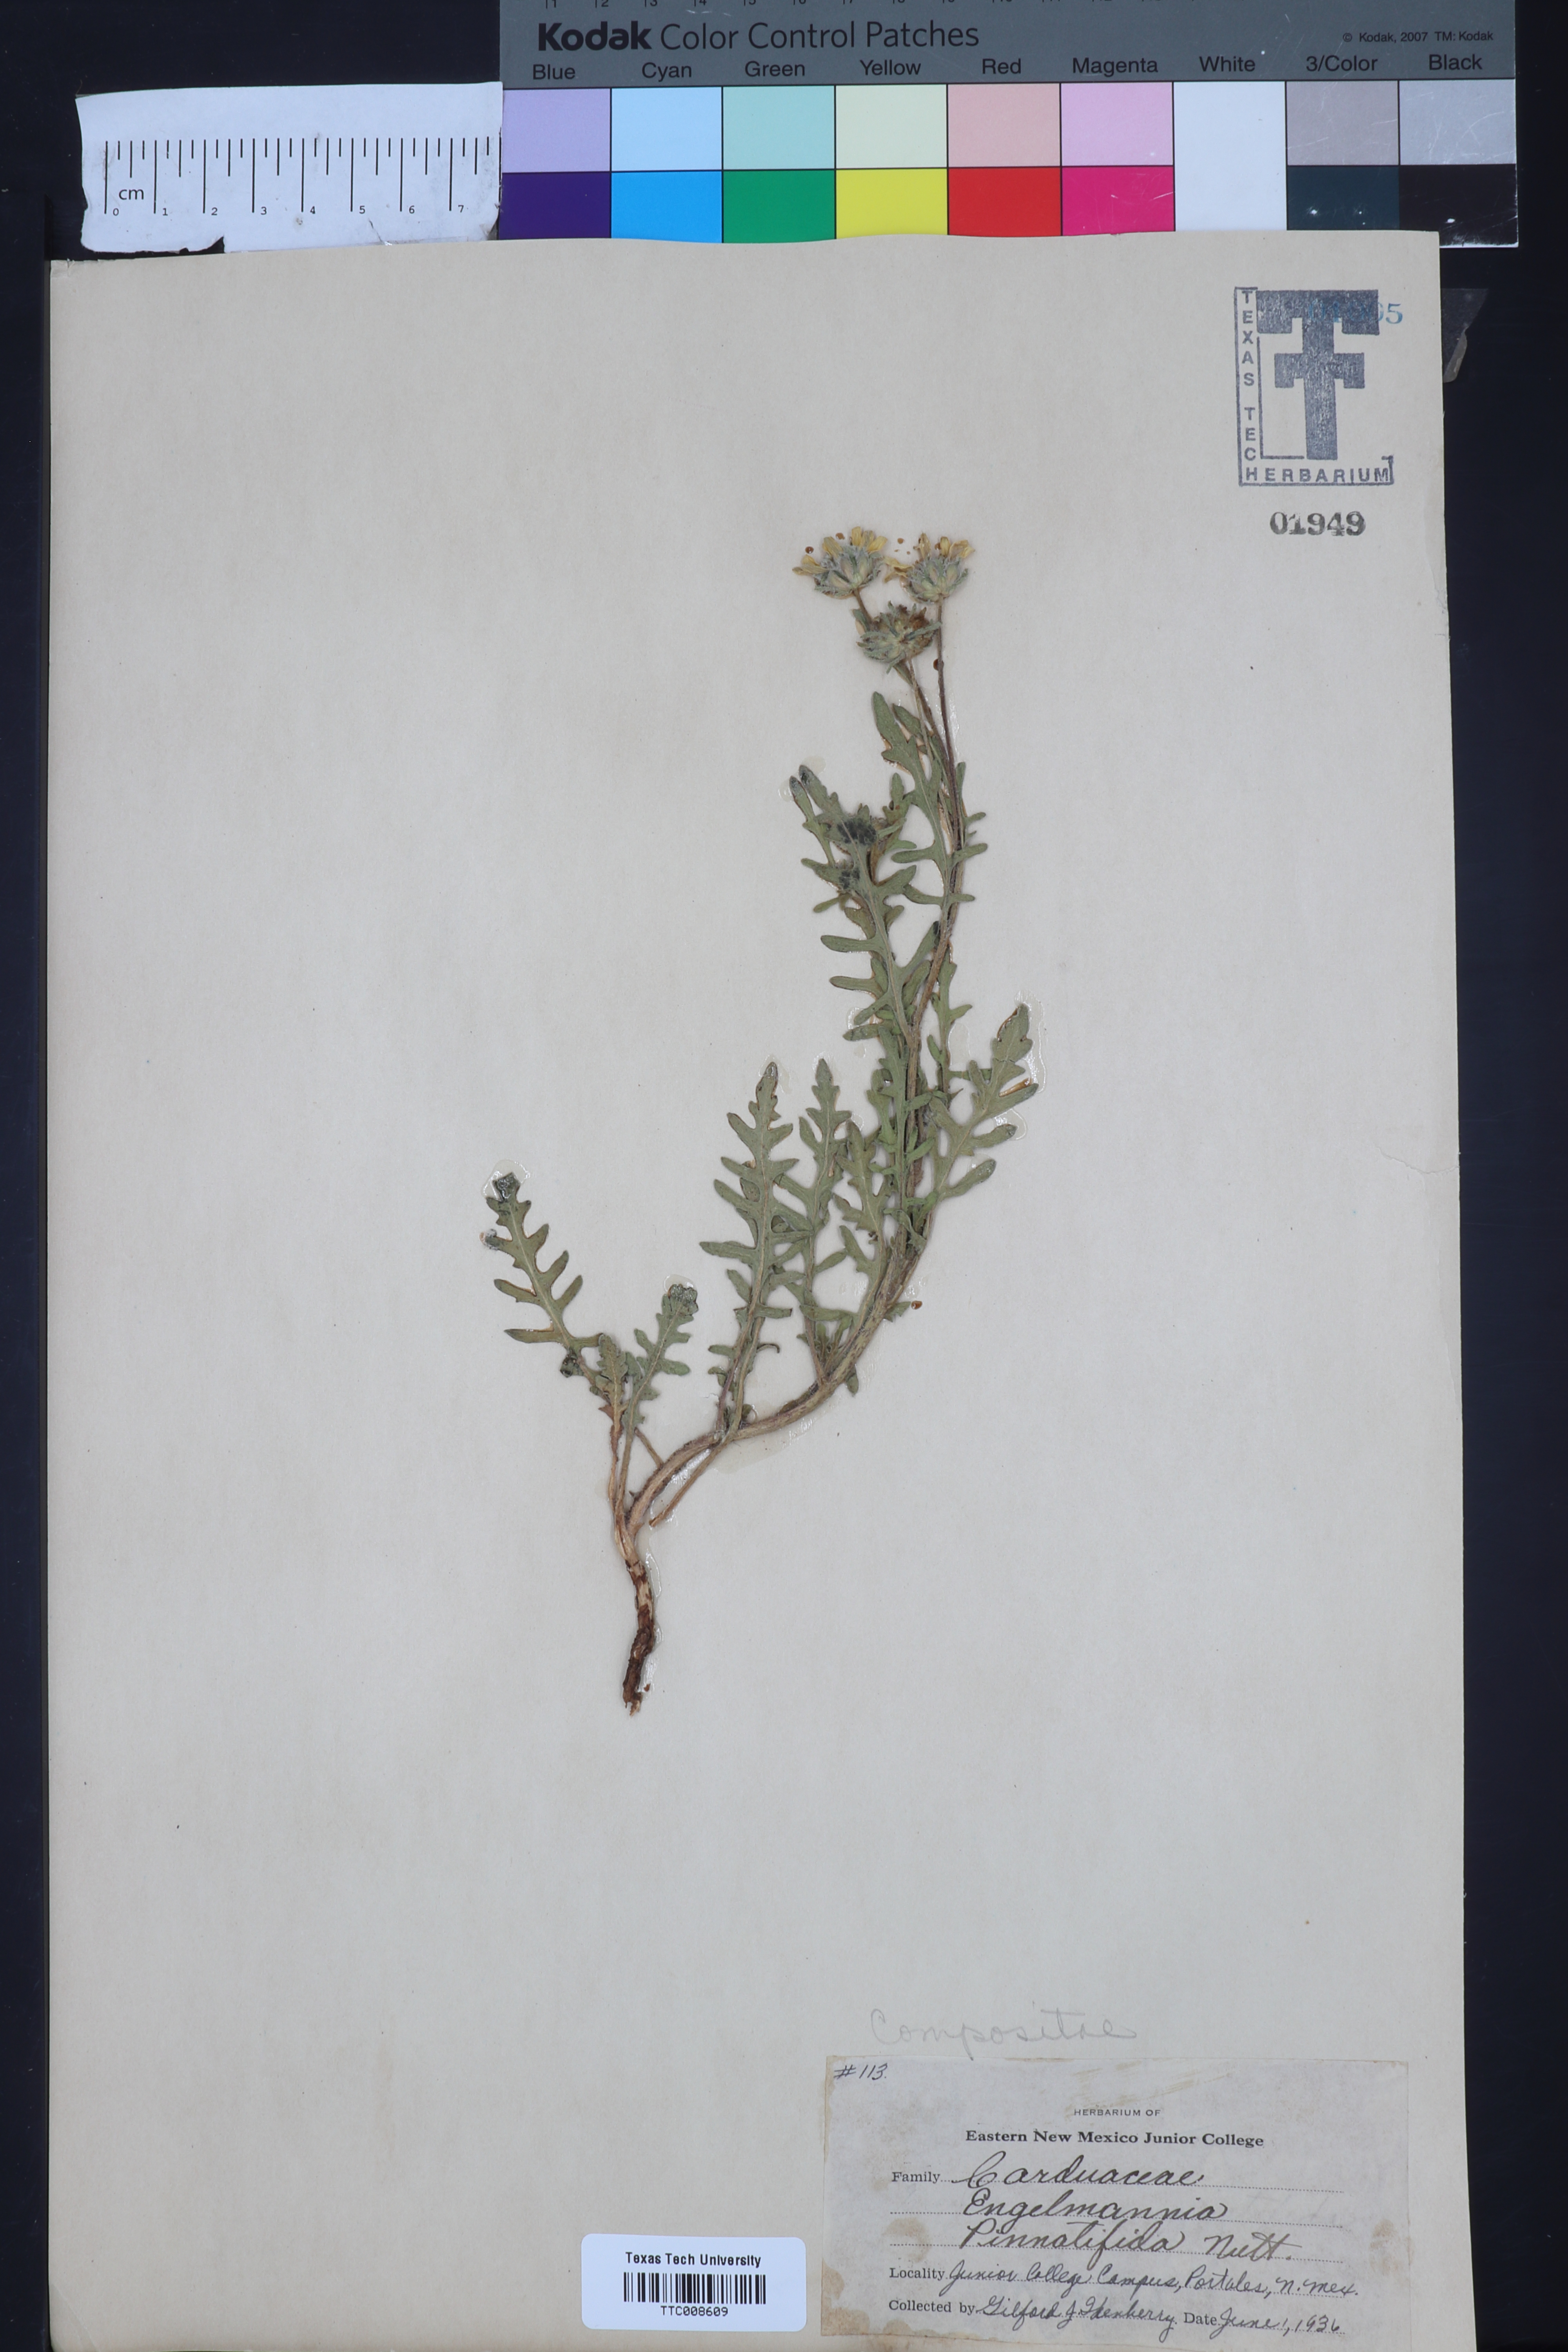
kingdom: Plantae
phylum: Tracheophyta
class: Magnoliopsida
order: Asterales
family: Asteraceae
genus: Engelmannia
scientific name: Engelmannia peristenia
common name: Engelmann's daisy
